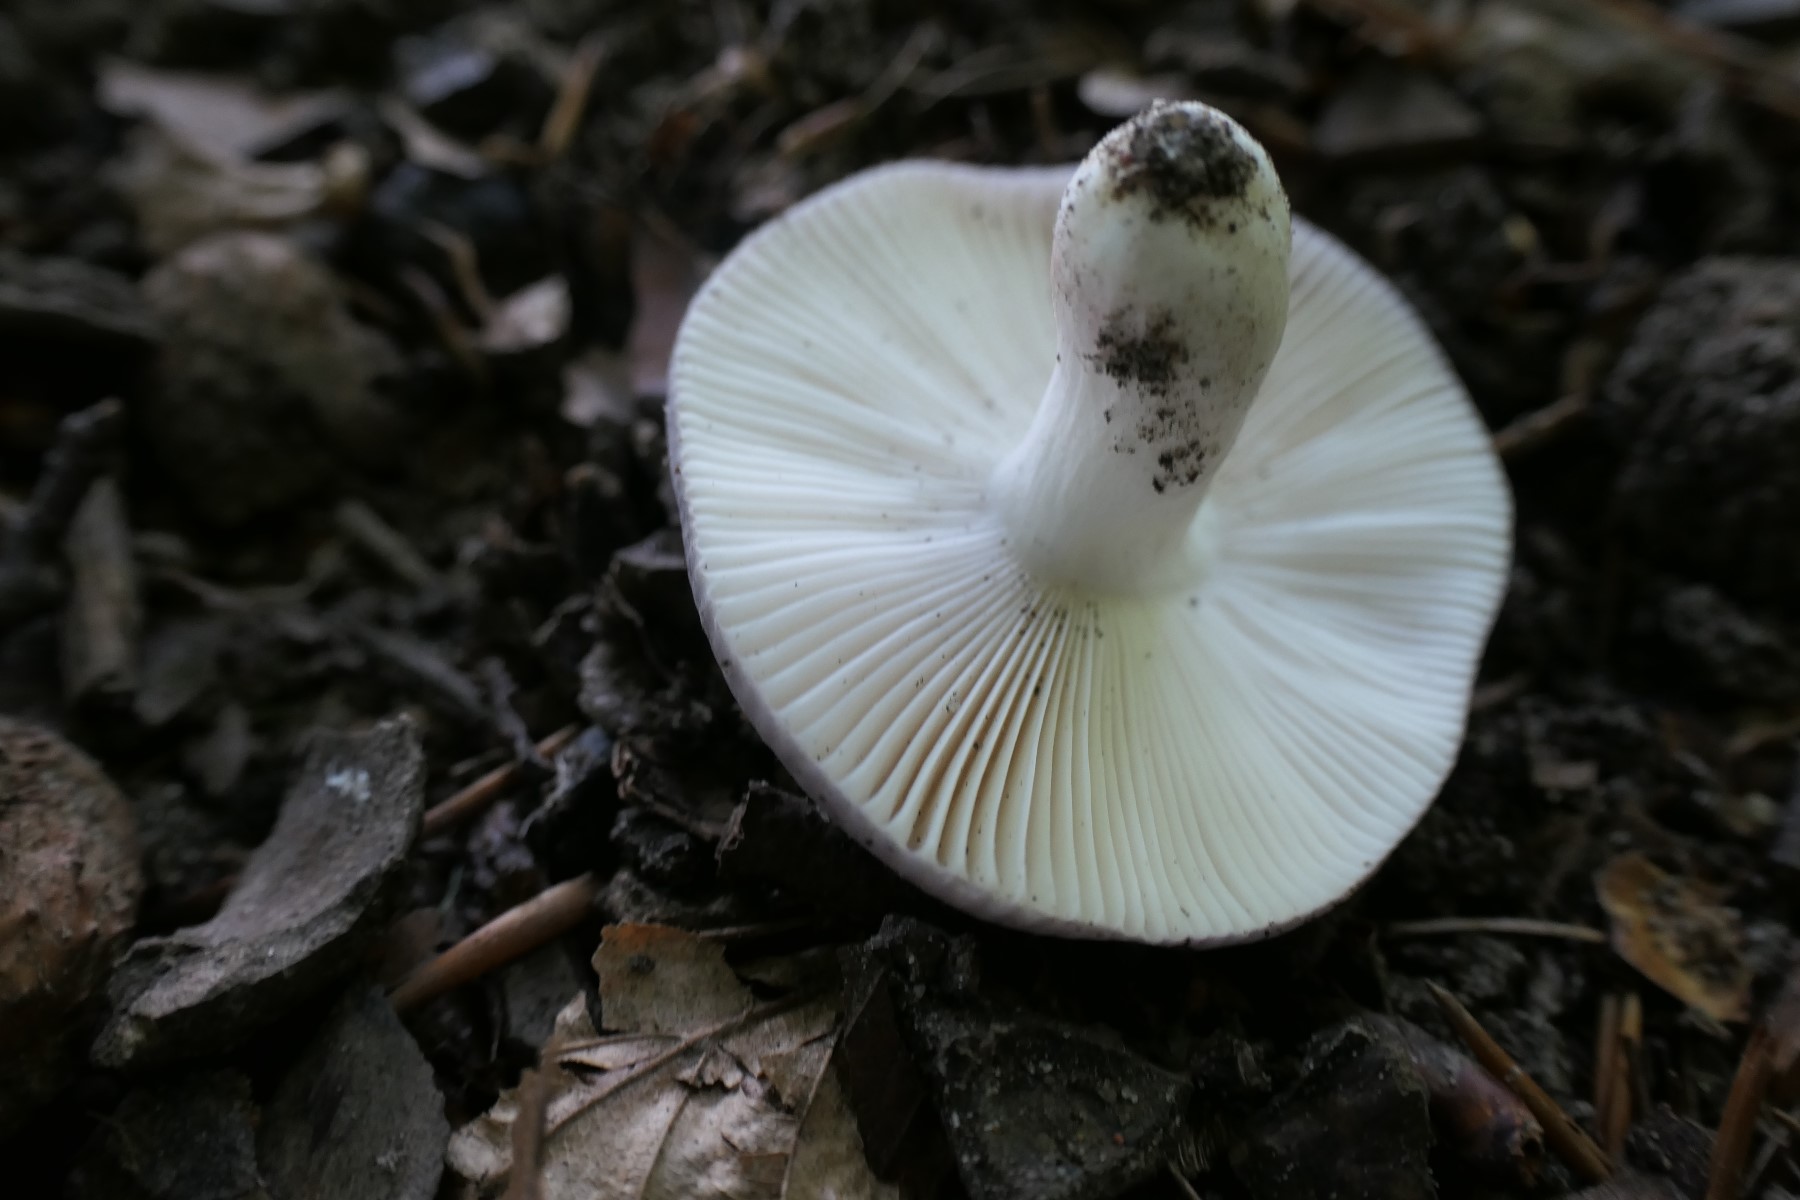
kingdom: Fungi
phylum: Basidiomycota
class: Agaricomycetes
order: Russulales
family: Russulaceae
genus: Russula
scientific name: Russula ionochlora
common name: violetgrøn skørhat
